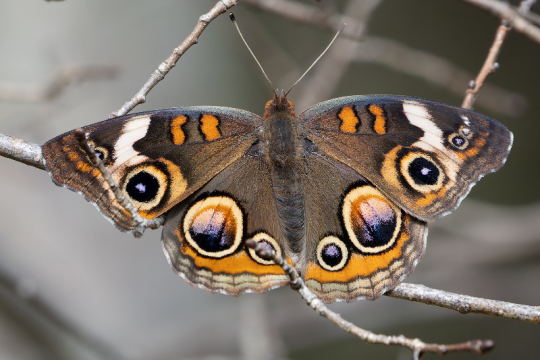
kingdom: Animalia
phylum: Arthropoda
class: Insecta
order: Lepidoptera
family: Nymphalidae
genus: Junonia
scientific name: Junonia coenia
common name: Common Buckeye
